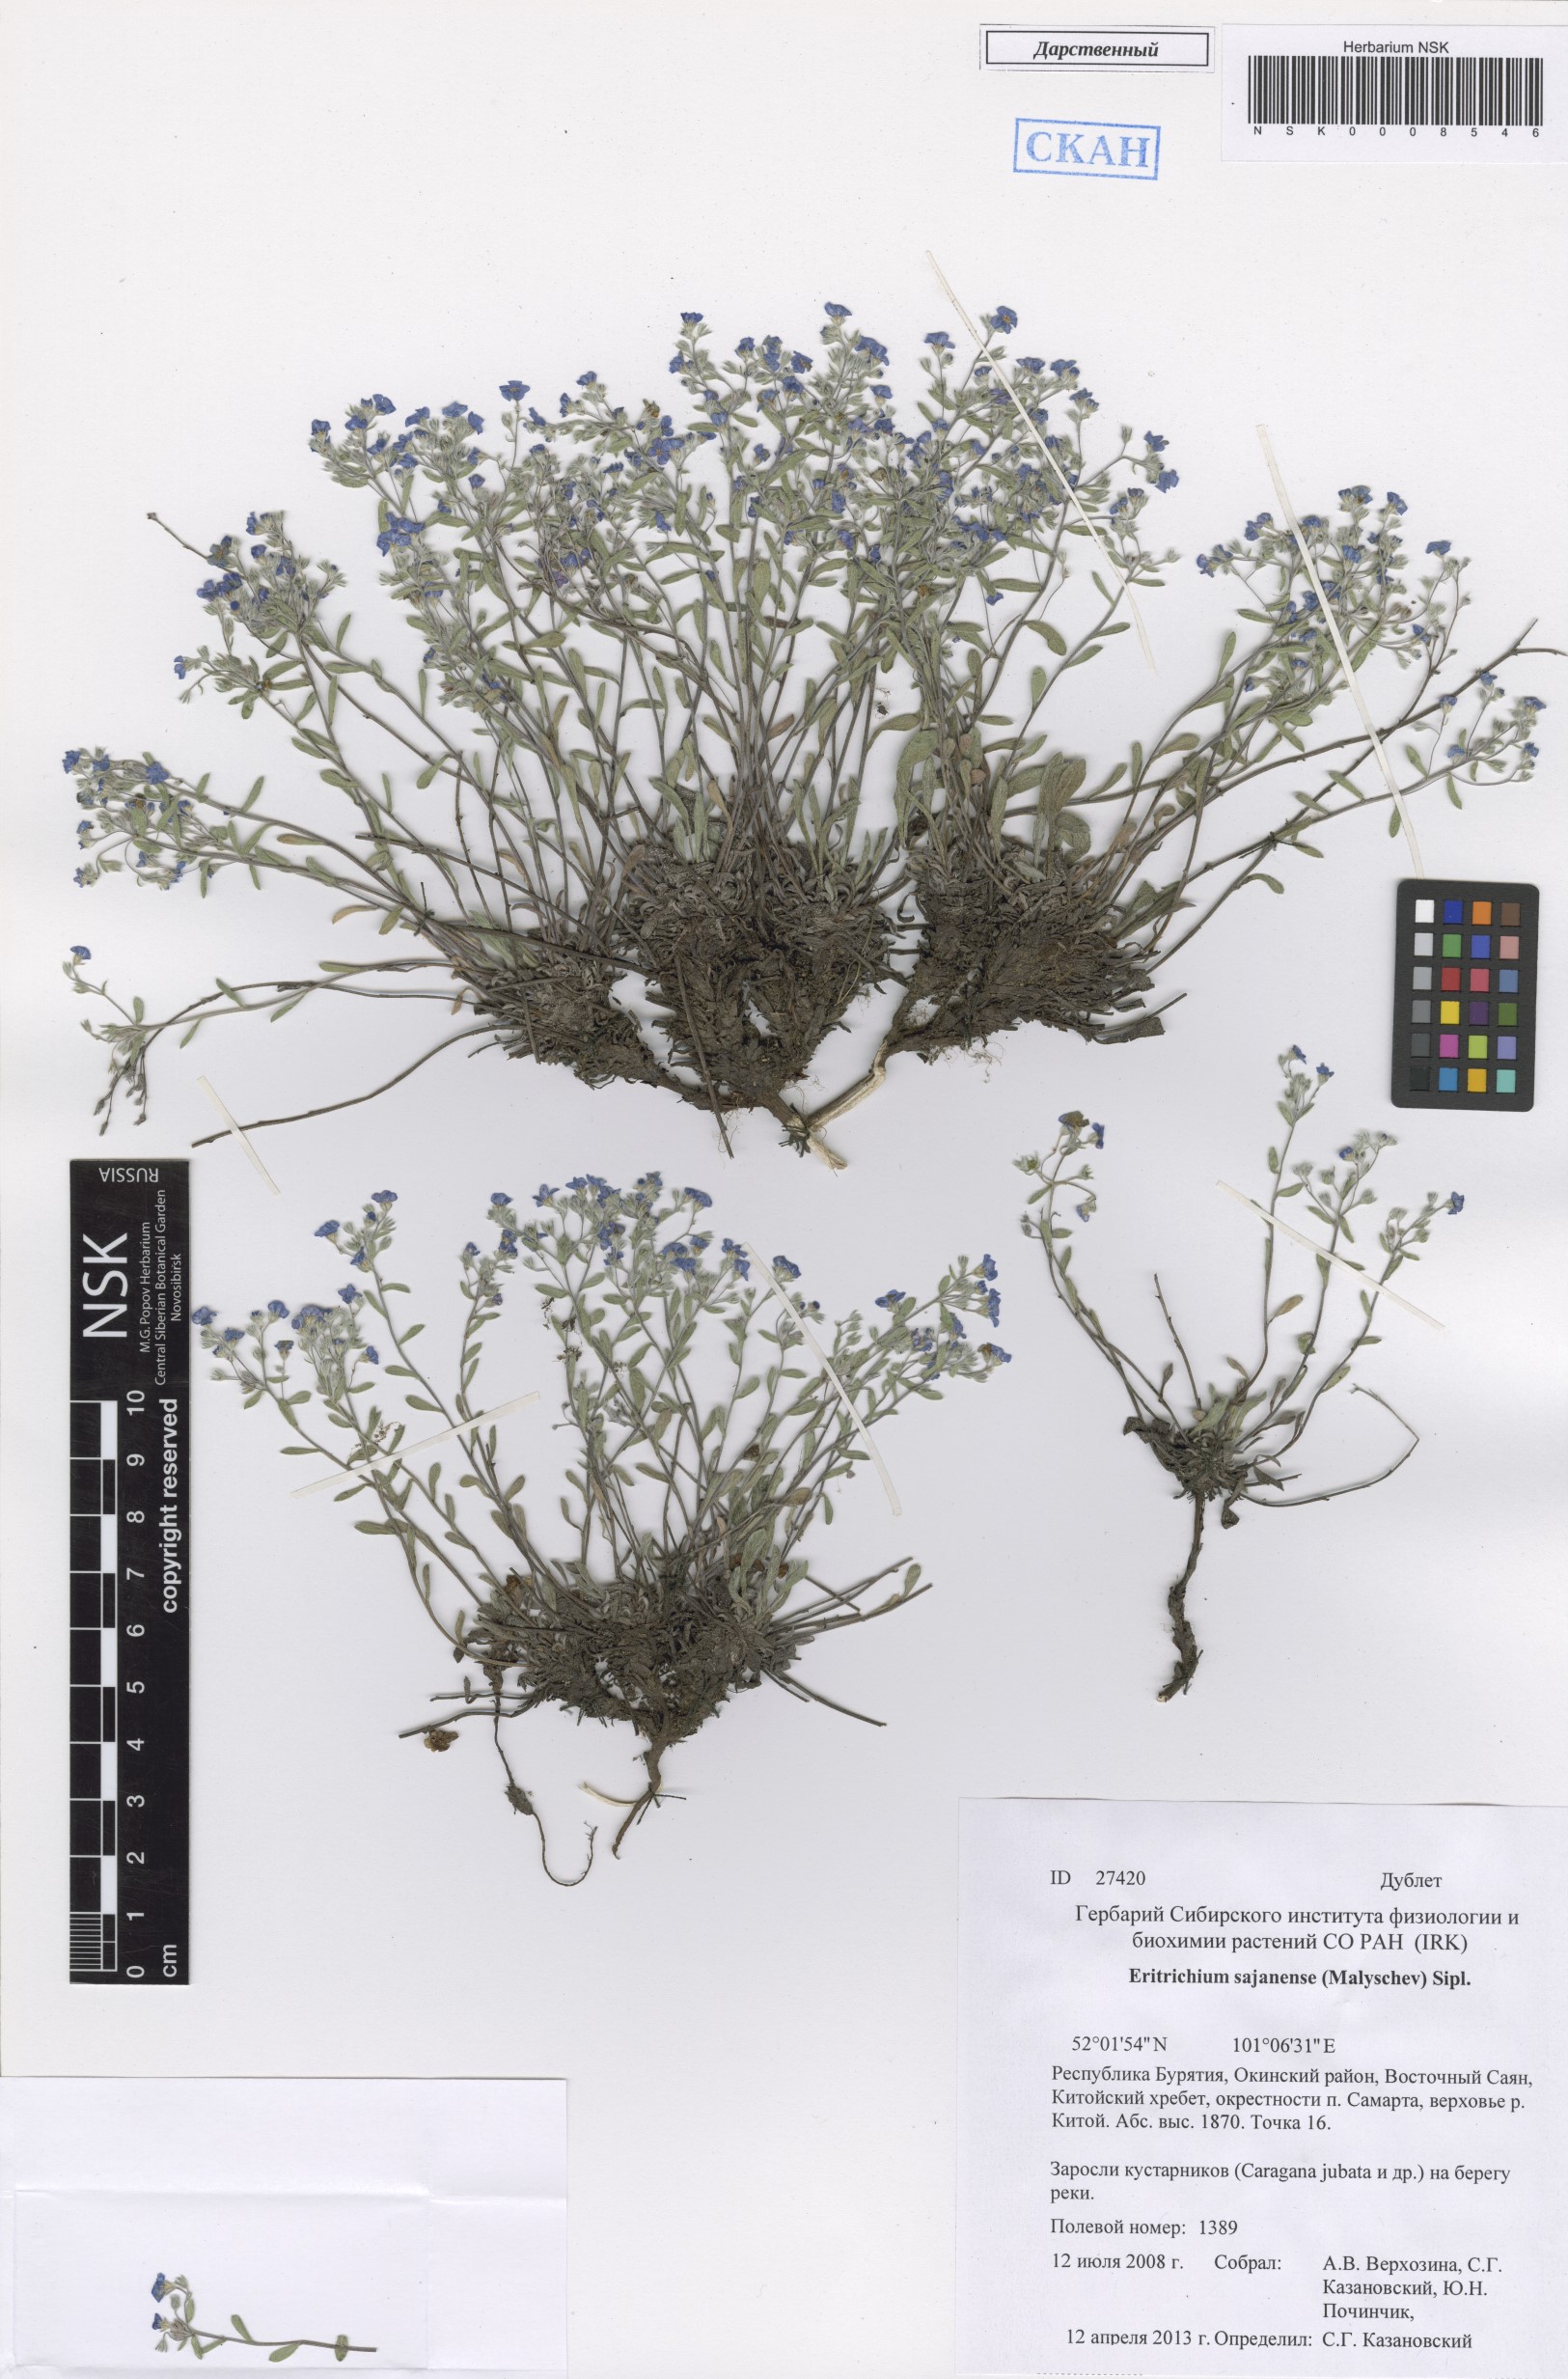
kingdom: Plantae
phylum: Tracheophyta
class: Magnoliopsida
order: Boraginales
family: Boraginaceae
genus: Eritrichium
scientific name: Eritrichium sajanense
